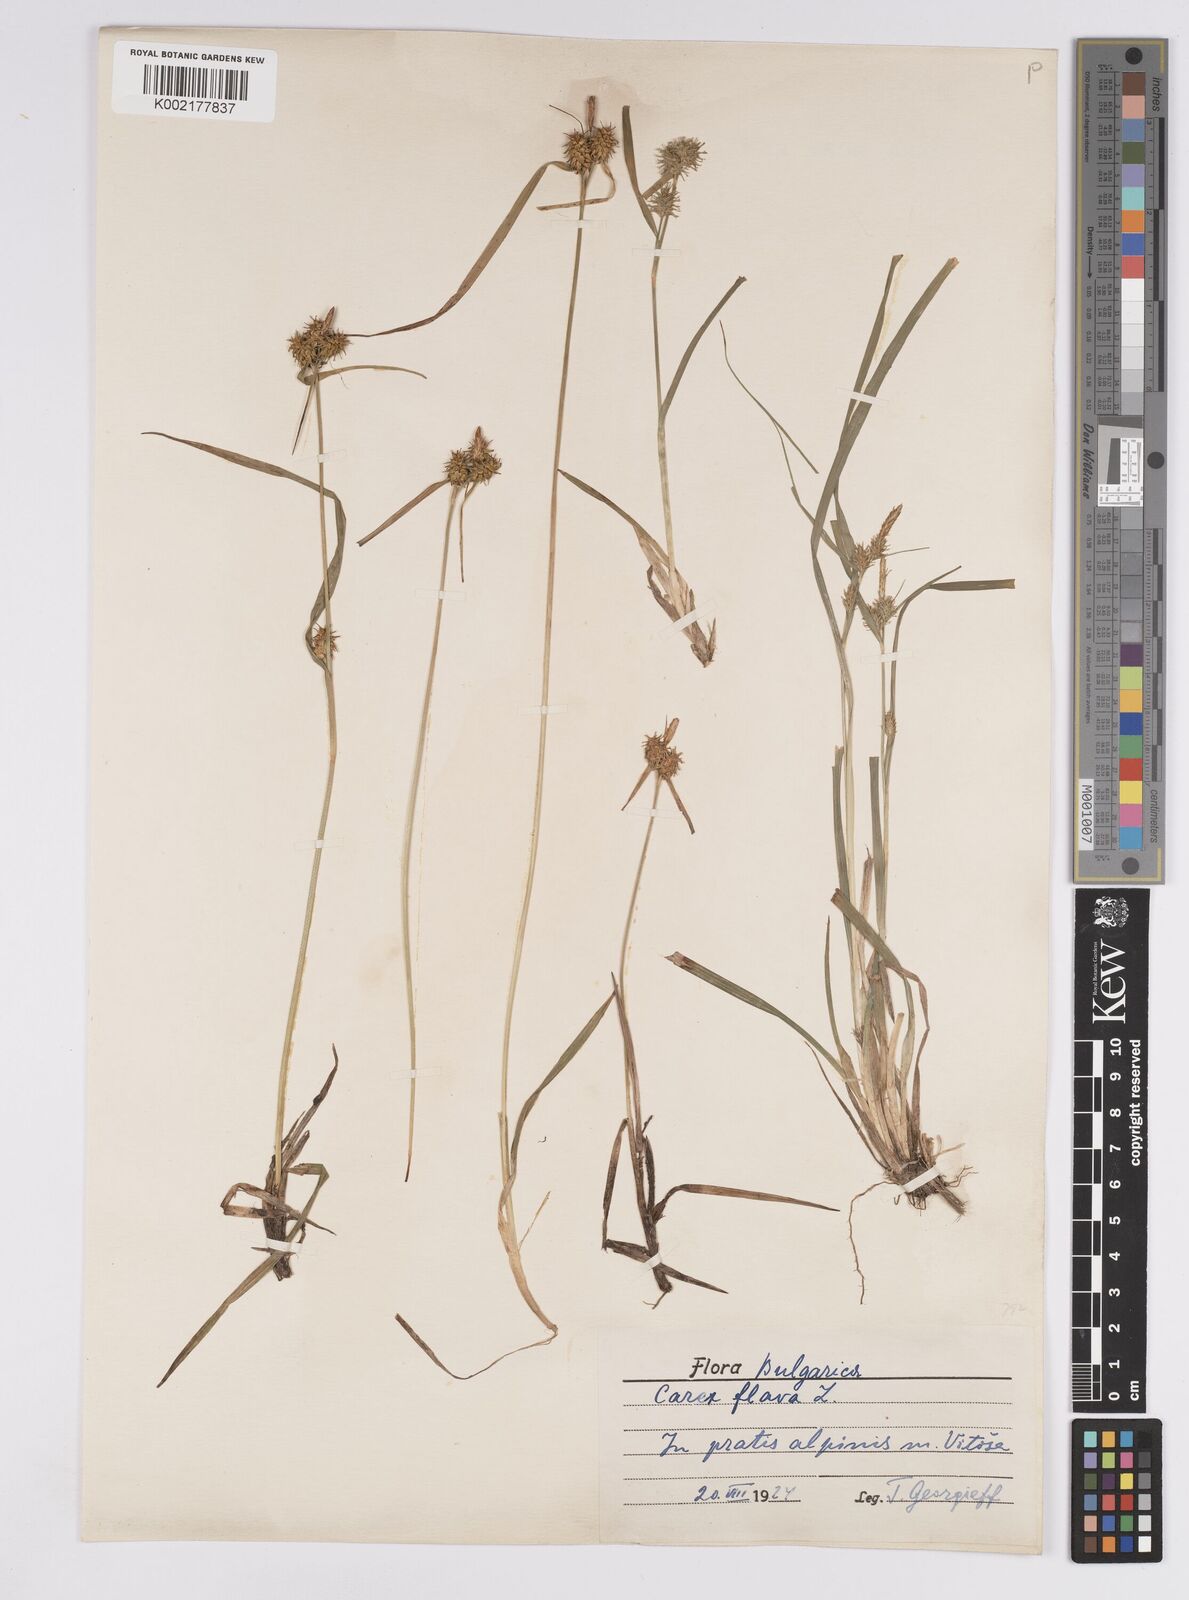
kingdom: Plantae
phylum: Tracheophyta
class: Liliopsida
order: Poales
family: Cyperaceae
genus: Carex
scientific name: Carex flava
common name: Large yellow-sedge
